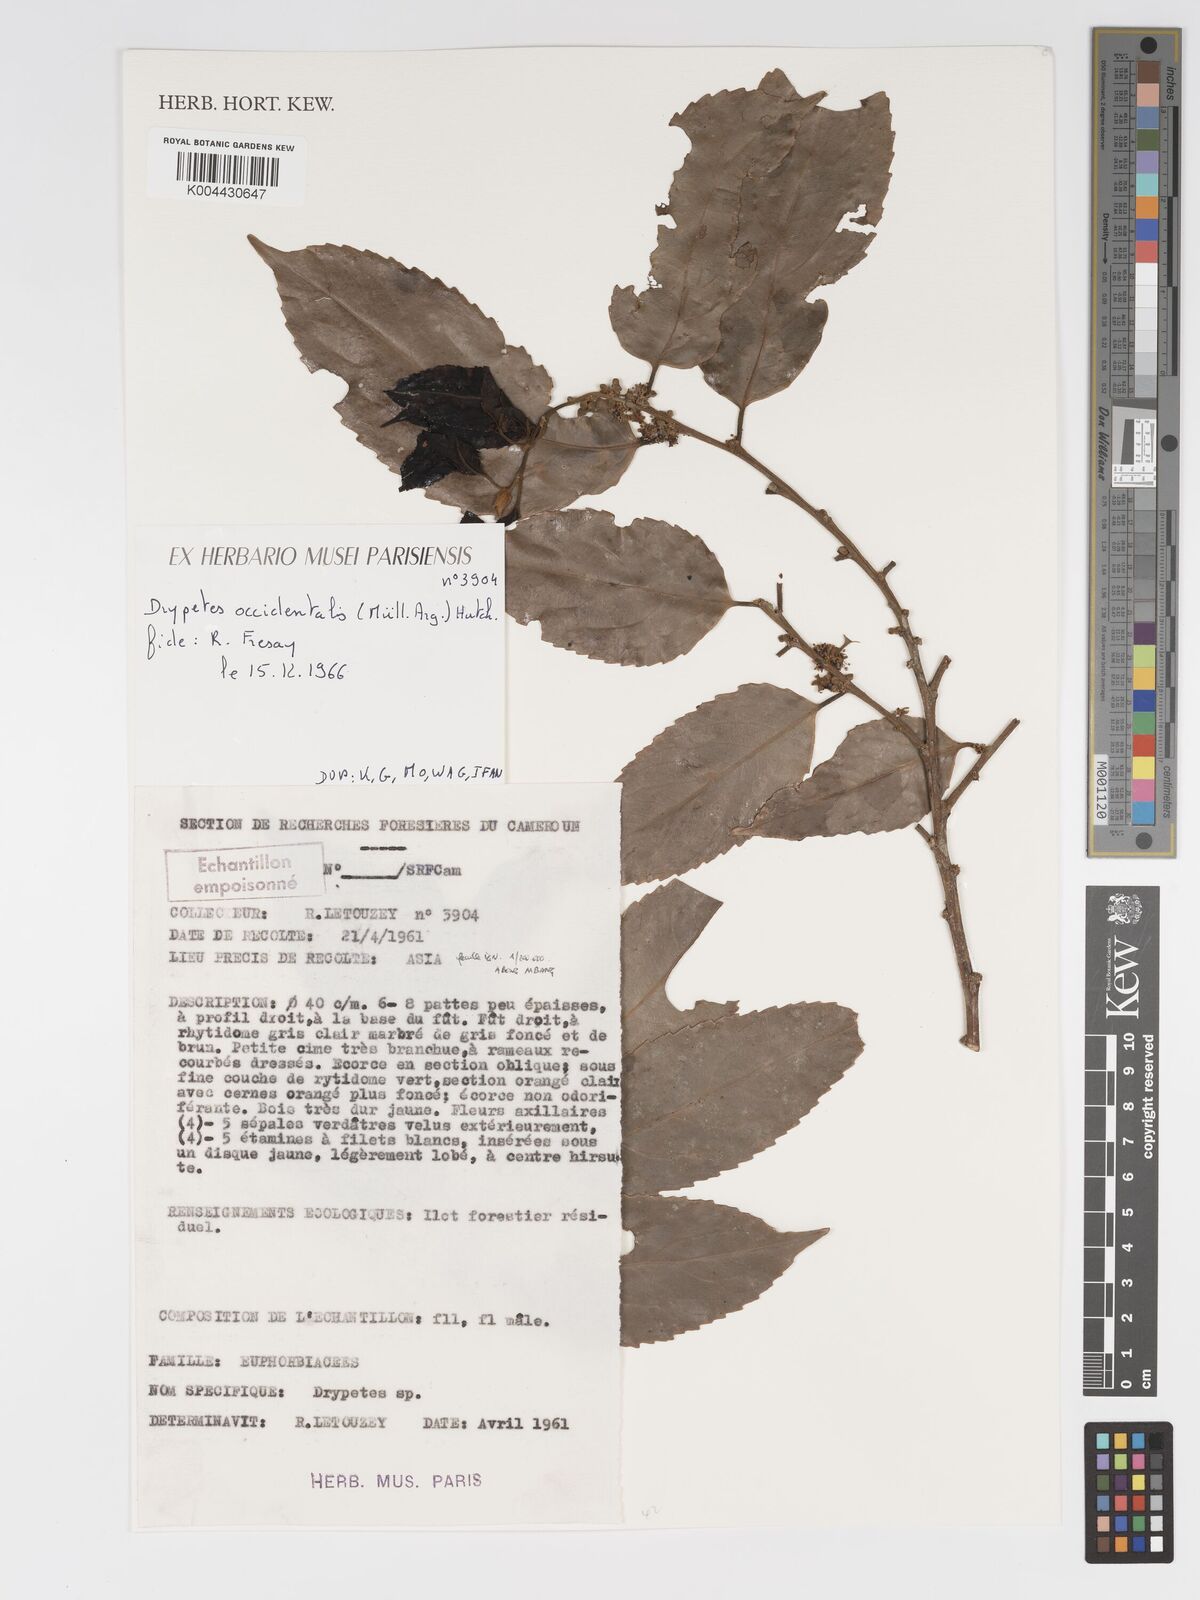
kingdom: Plantae
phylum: Tracheophyta
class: Magnoliopsida
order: Malpighiales
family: Putranjivaceae
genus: Drypetes
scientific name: Drypetes occidentalis
